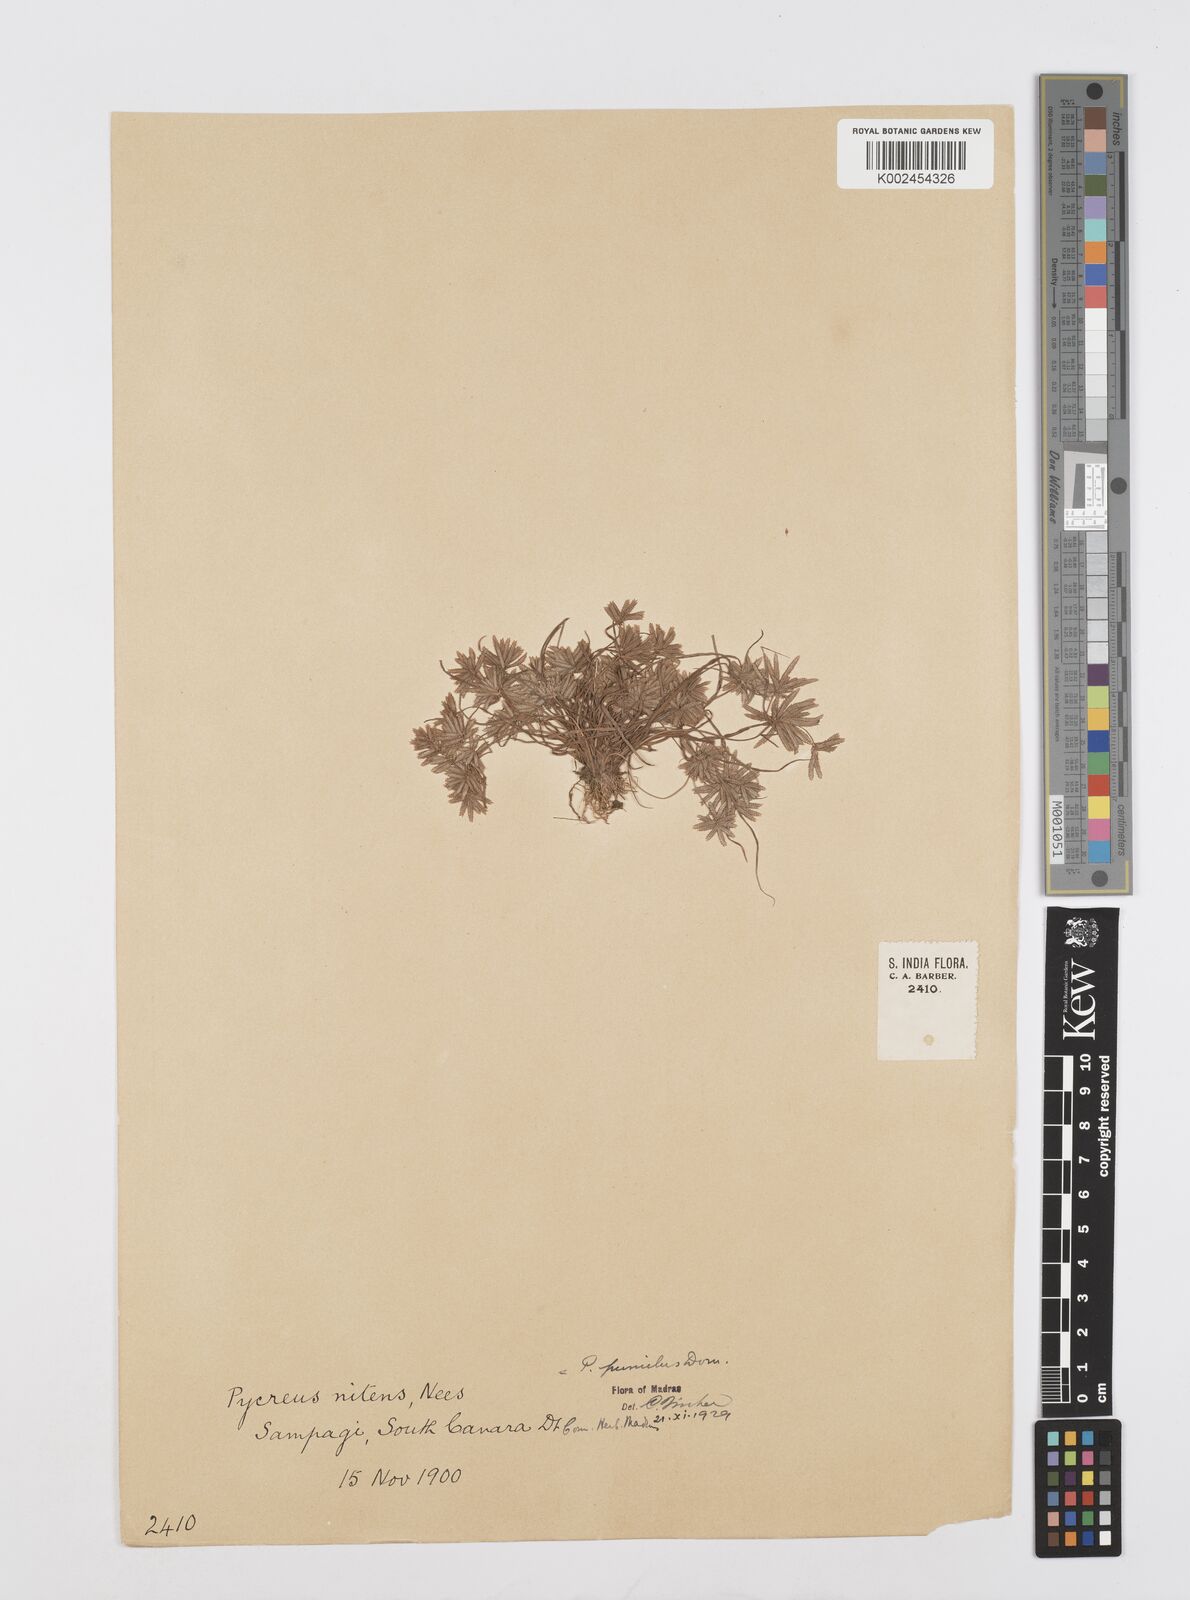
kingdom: Plantae
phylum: Tracheophyta
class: Liliopsida
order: Poales
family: Cyperaceae
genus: Cyperus
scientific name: Cyperus pumilus
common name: Low flatsedge
